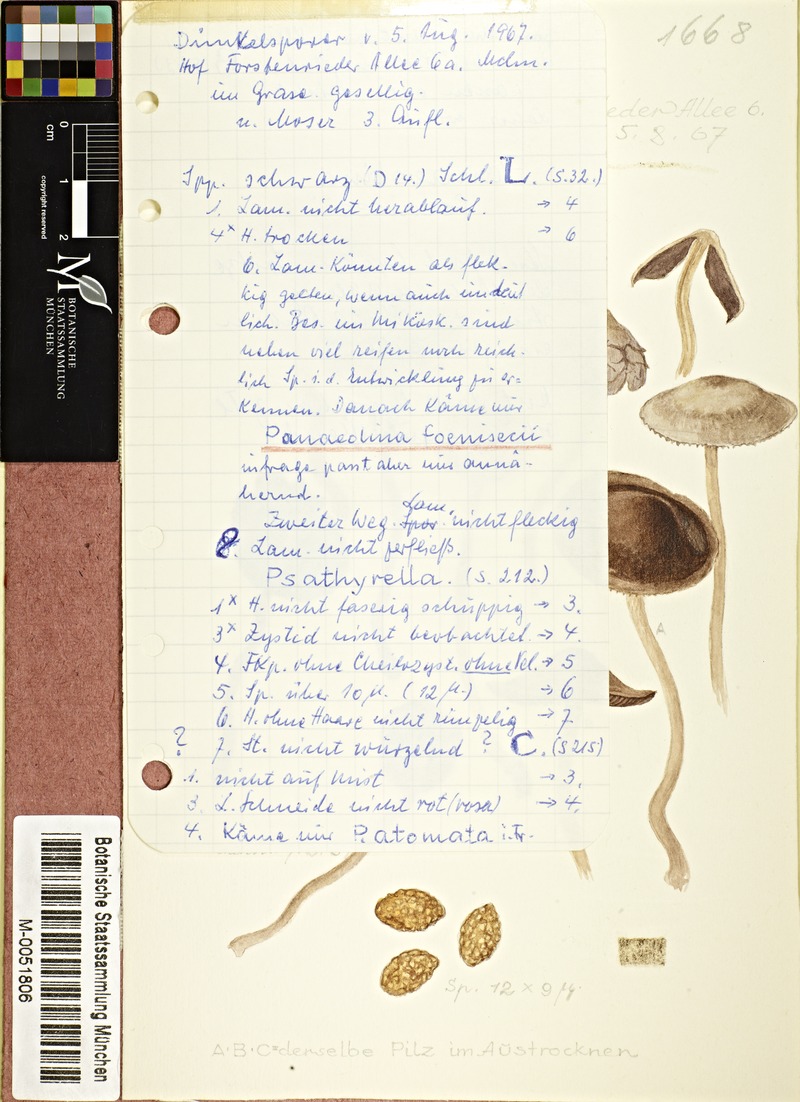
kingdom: Fungi
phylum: Basidiomycota
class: Agaricomycetes
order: Agaricales
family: Bolbitiaceae
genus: Panaeolina
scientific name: Panaeolina foenisecii
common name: Brown hay cap
